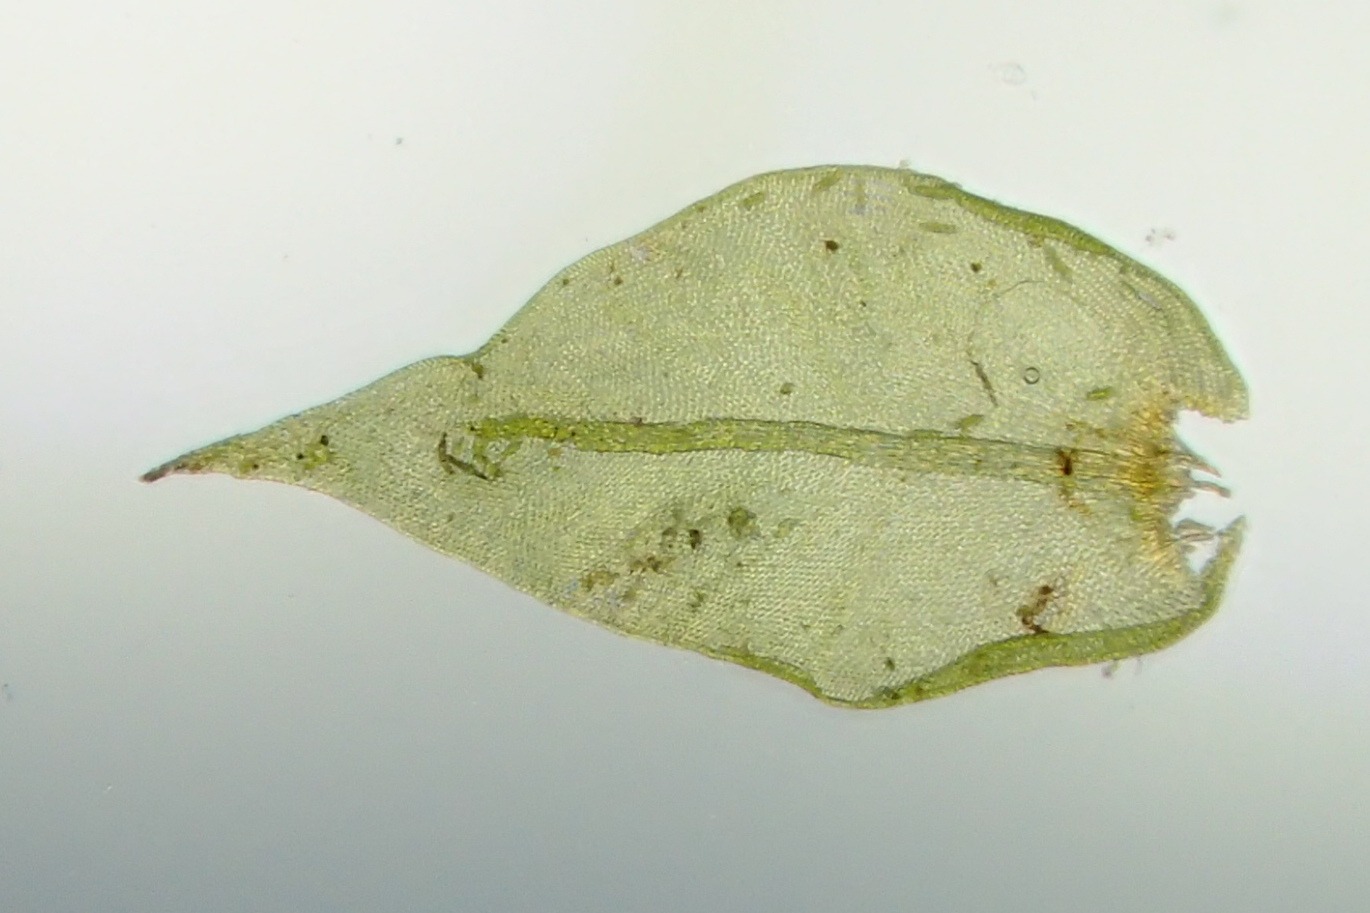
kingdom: Plantae
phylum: Bryophyta
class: Bryopsida
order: Hypnales
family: Cryphaeaceae
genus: Cryphaea
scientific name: Cryphaea heteromalla
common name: Bark-dækmos
